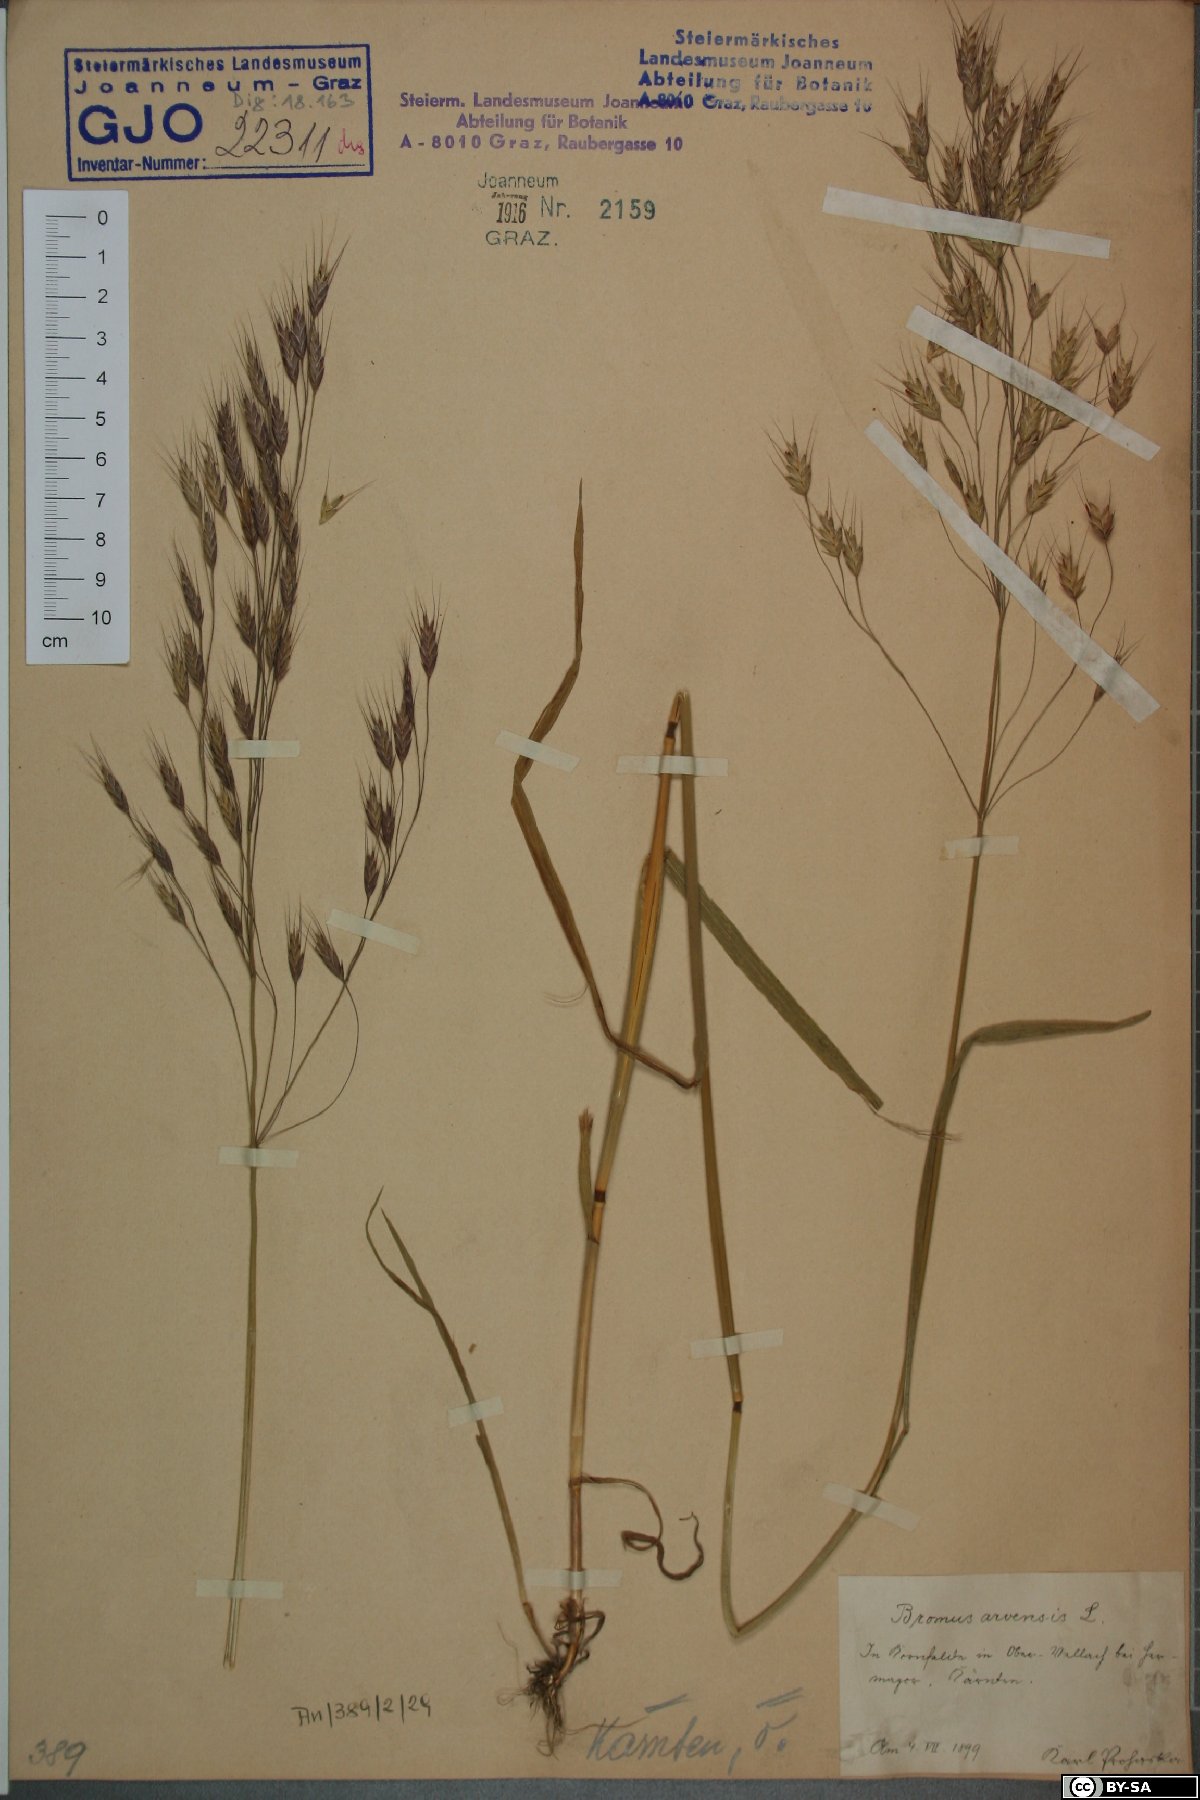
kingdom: Plantae
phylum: Tracheophyta
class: Liliopsida
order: Poales
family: Poaceae
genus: Bromus
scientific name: Bromus arvensis
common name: Field brome
